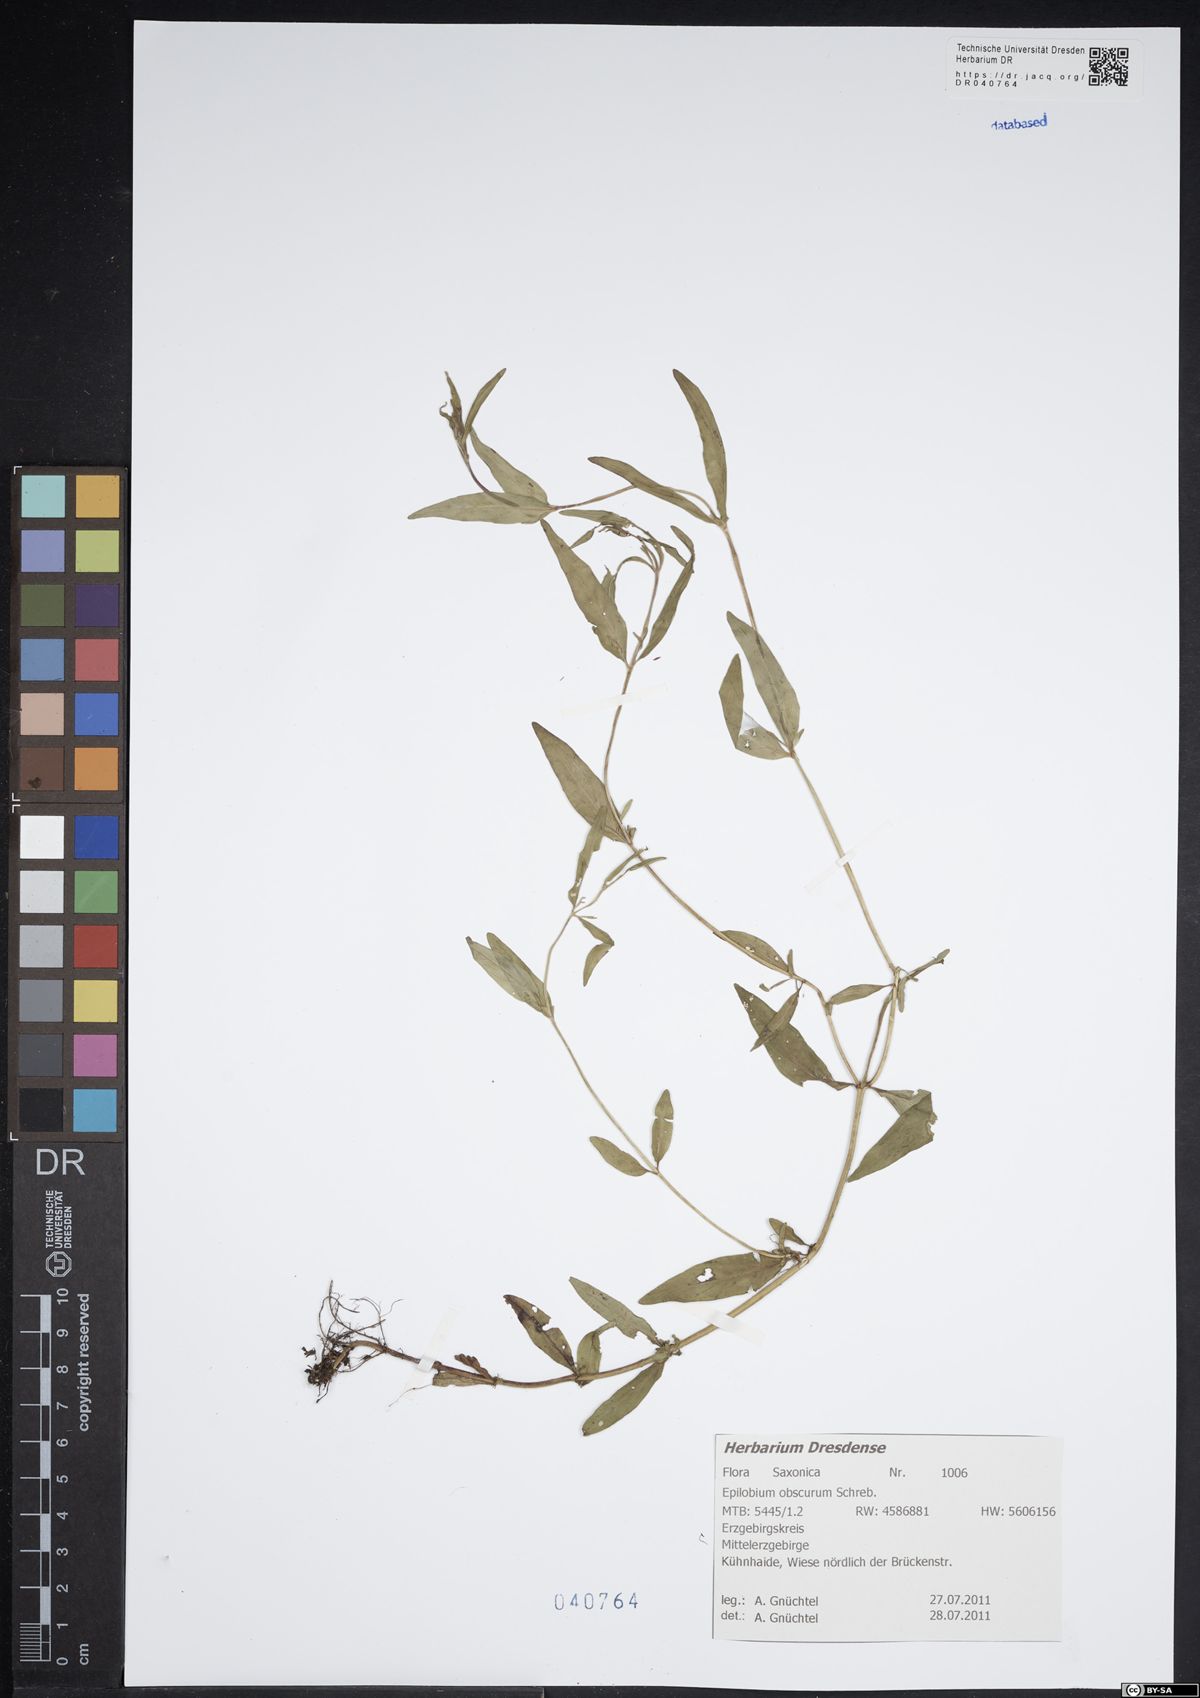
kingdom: Plantae
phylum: Tracheophyta
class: Magnoliopsida
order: Myrtales
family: Onagraceae
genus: Epilobium
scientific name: Epilobium obscurum
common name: Short-fruited willowherb
